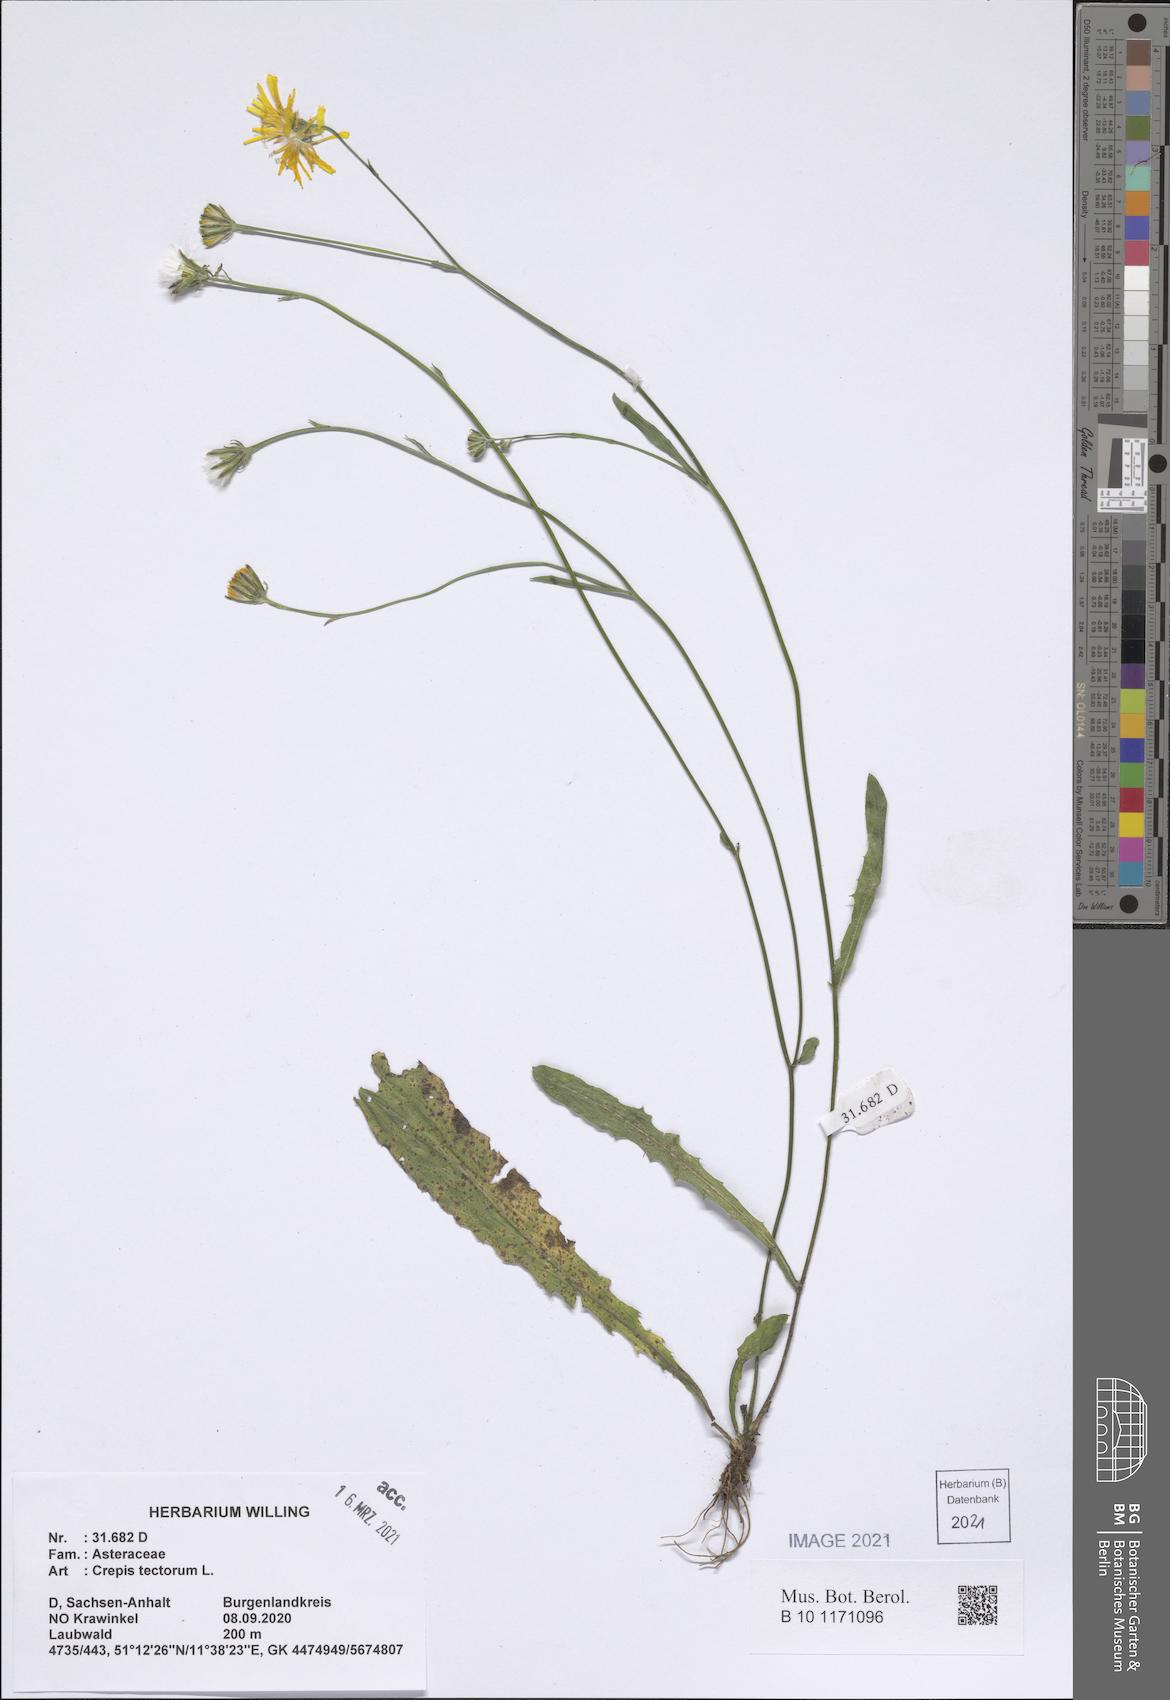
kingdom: Plantae
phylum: Tracheophyta
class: Magnoliopsida
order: Asterales
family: Asteraceae
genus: Crepis
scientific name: Crepis tectorum
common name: Narrow-leaved hawk's-beard
